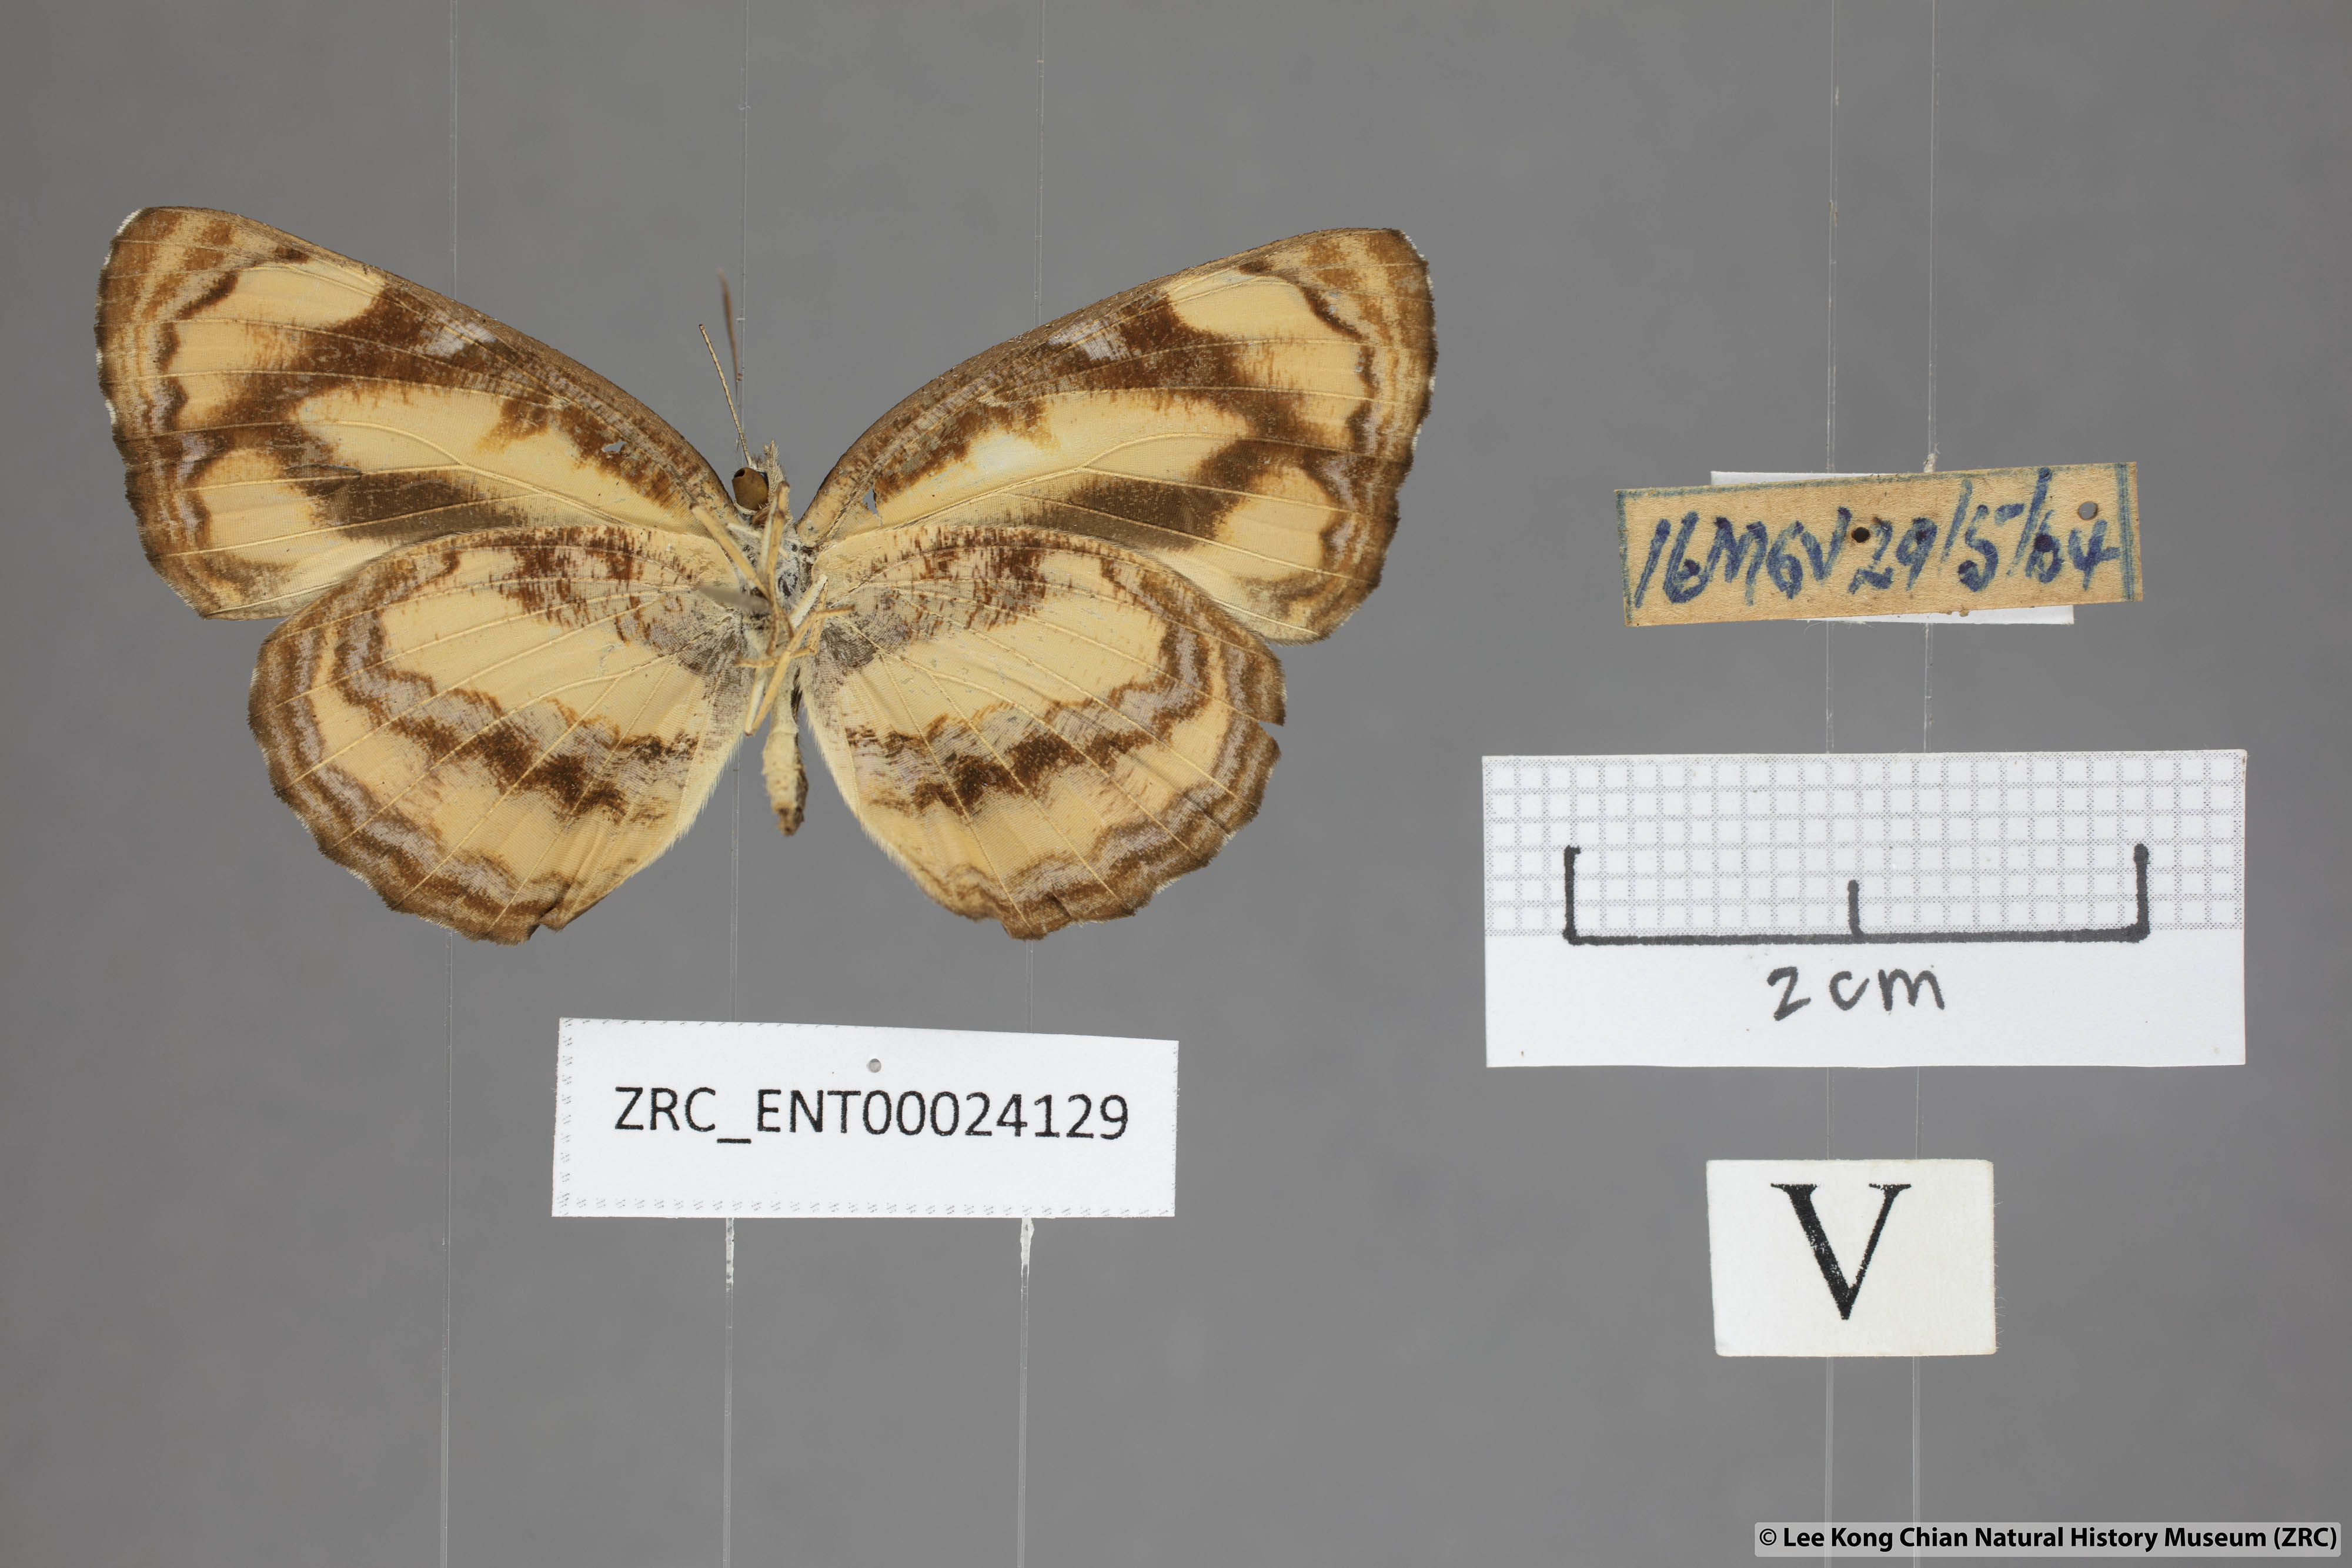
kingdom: Animalia
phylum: Arthropoda
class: Insecta
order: Lepidoptera
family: Nymphalidae
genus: Pantoporia
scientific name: Pantoporia hordonia
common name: Common lascar
